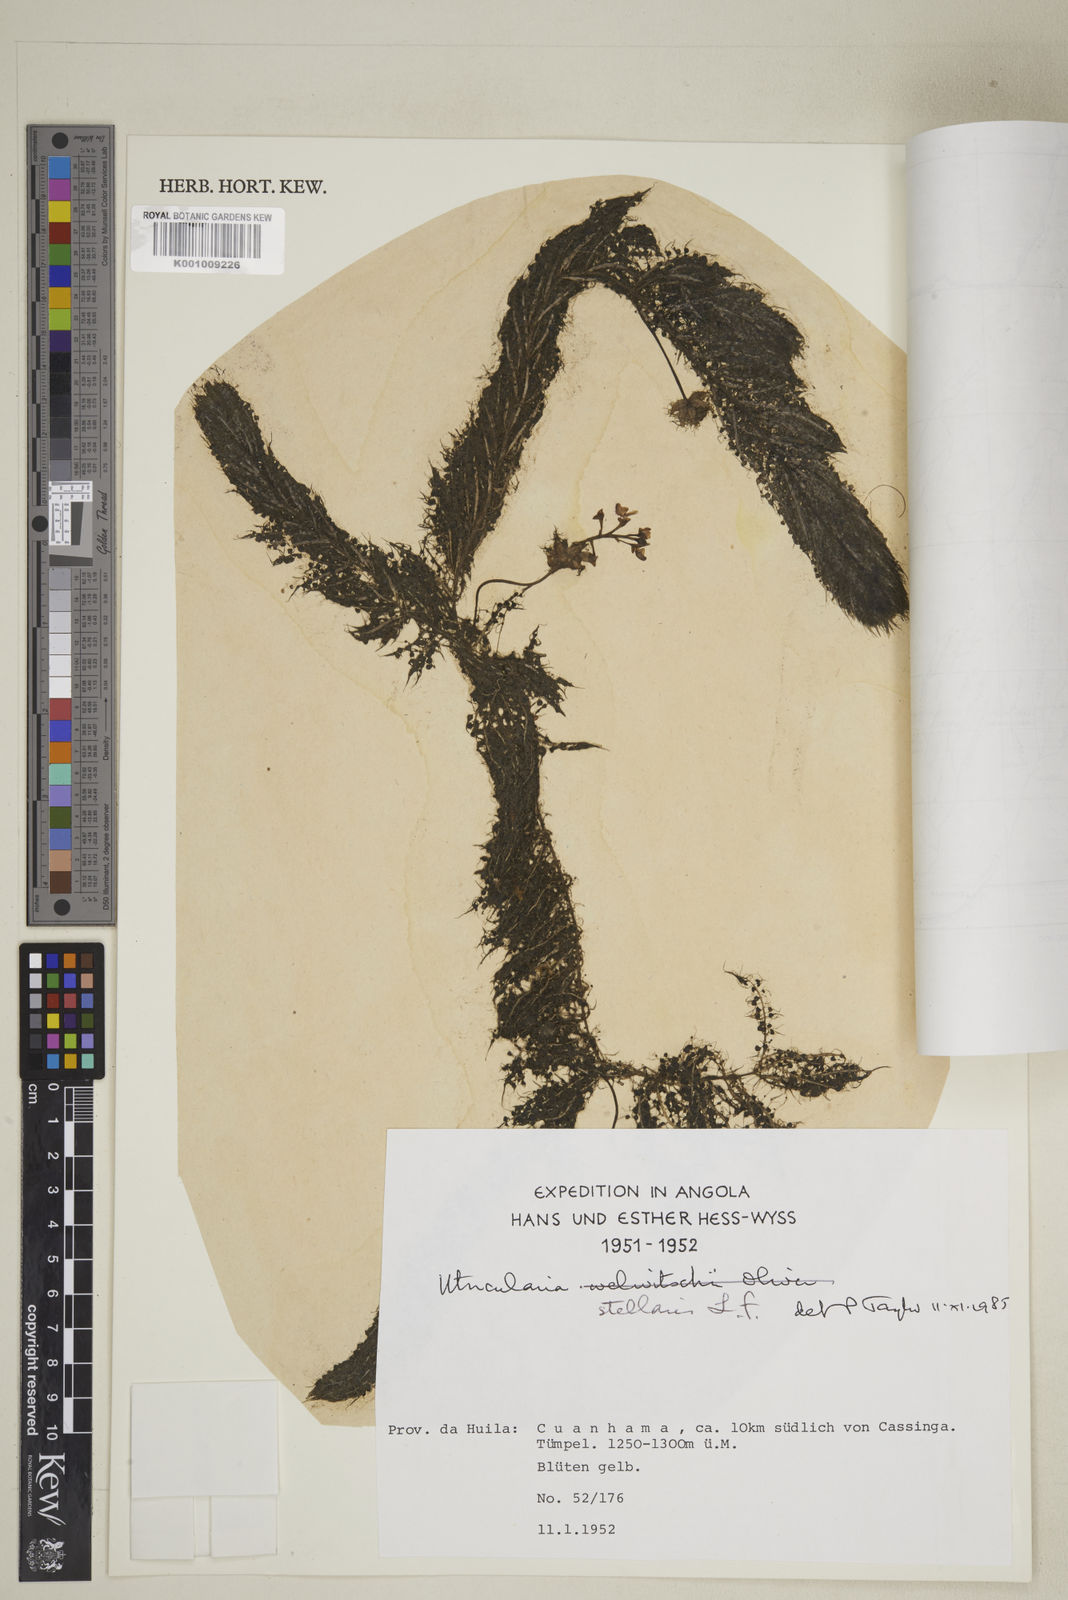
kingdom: Plantae
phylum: Tracheophyta
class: Magnoliopsida
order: Lamiales
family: Lentibulariaceae
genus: Utricularia
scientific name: Utricularia stellaris
